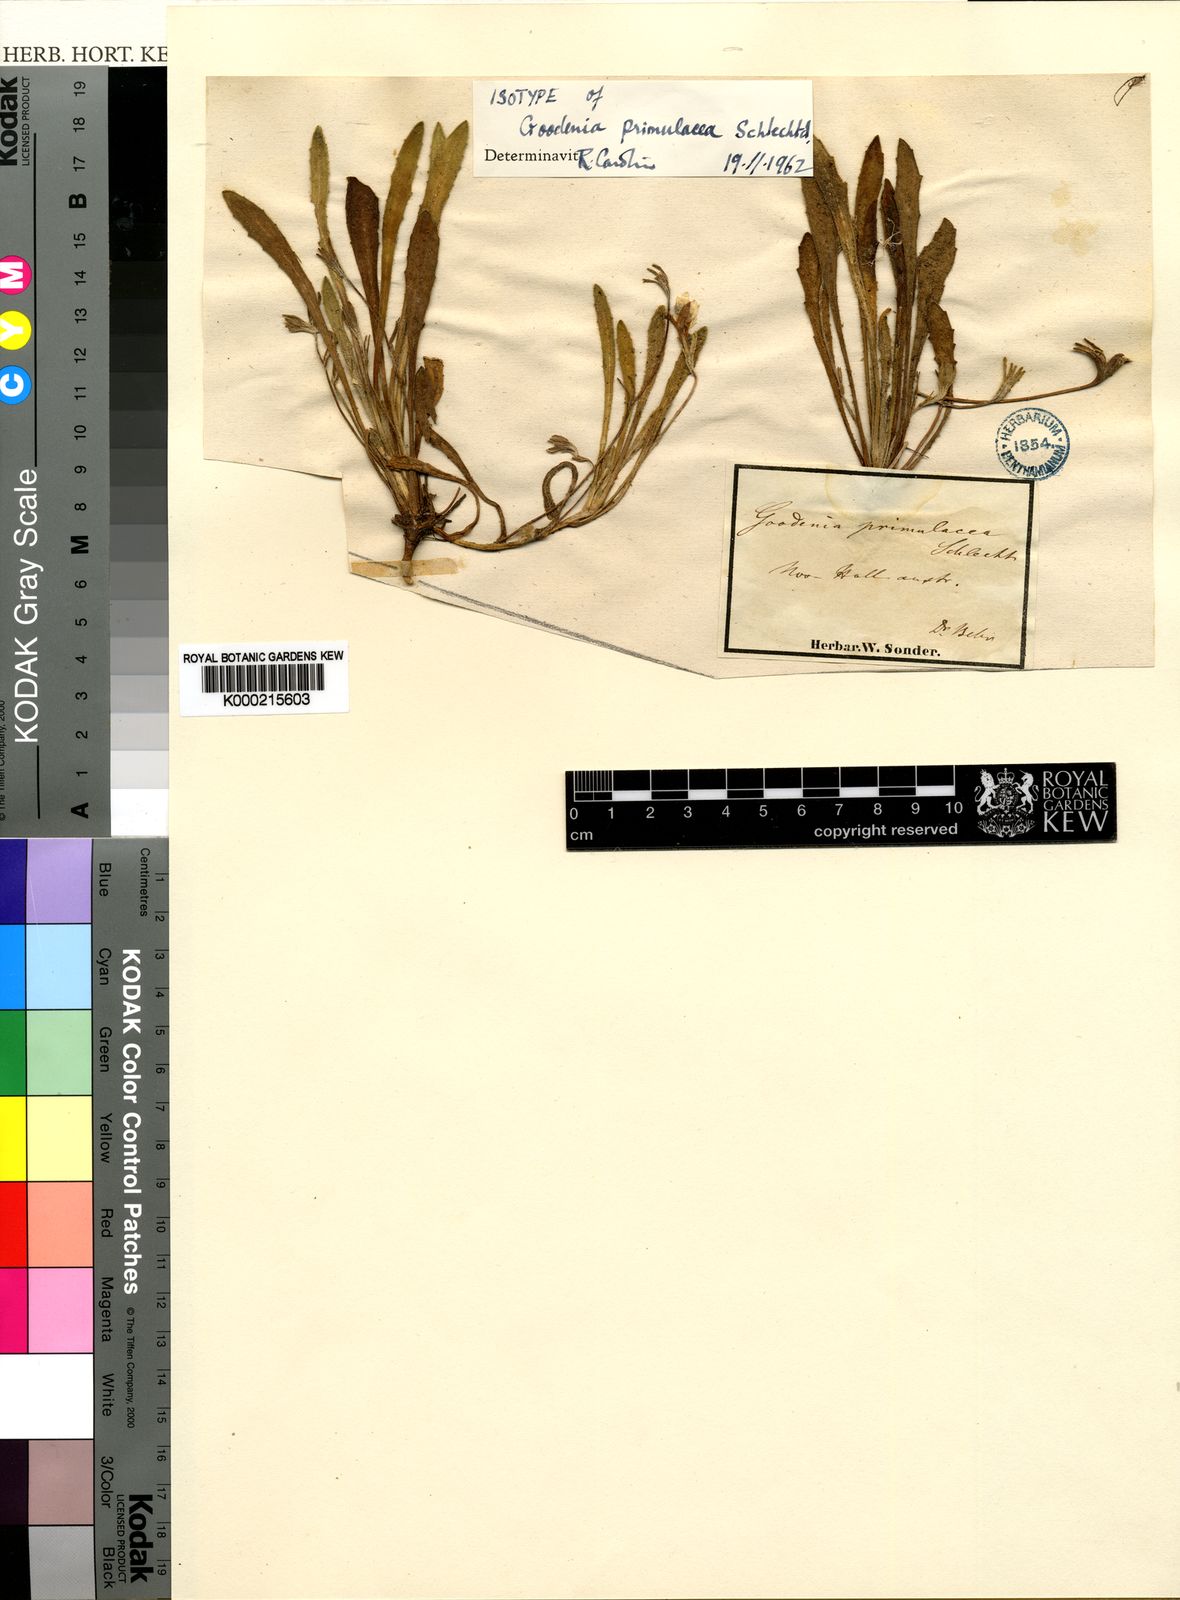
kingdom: Plantae
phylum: Tracheophyta
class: Magnoliopsida
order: Asterales
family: Goodeniaceae
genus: Goodenia
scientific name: Goodenia geniculata
